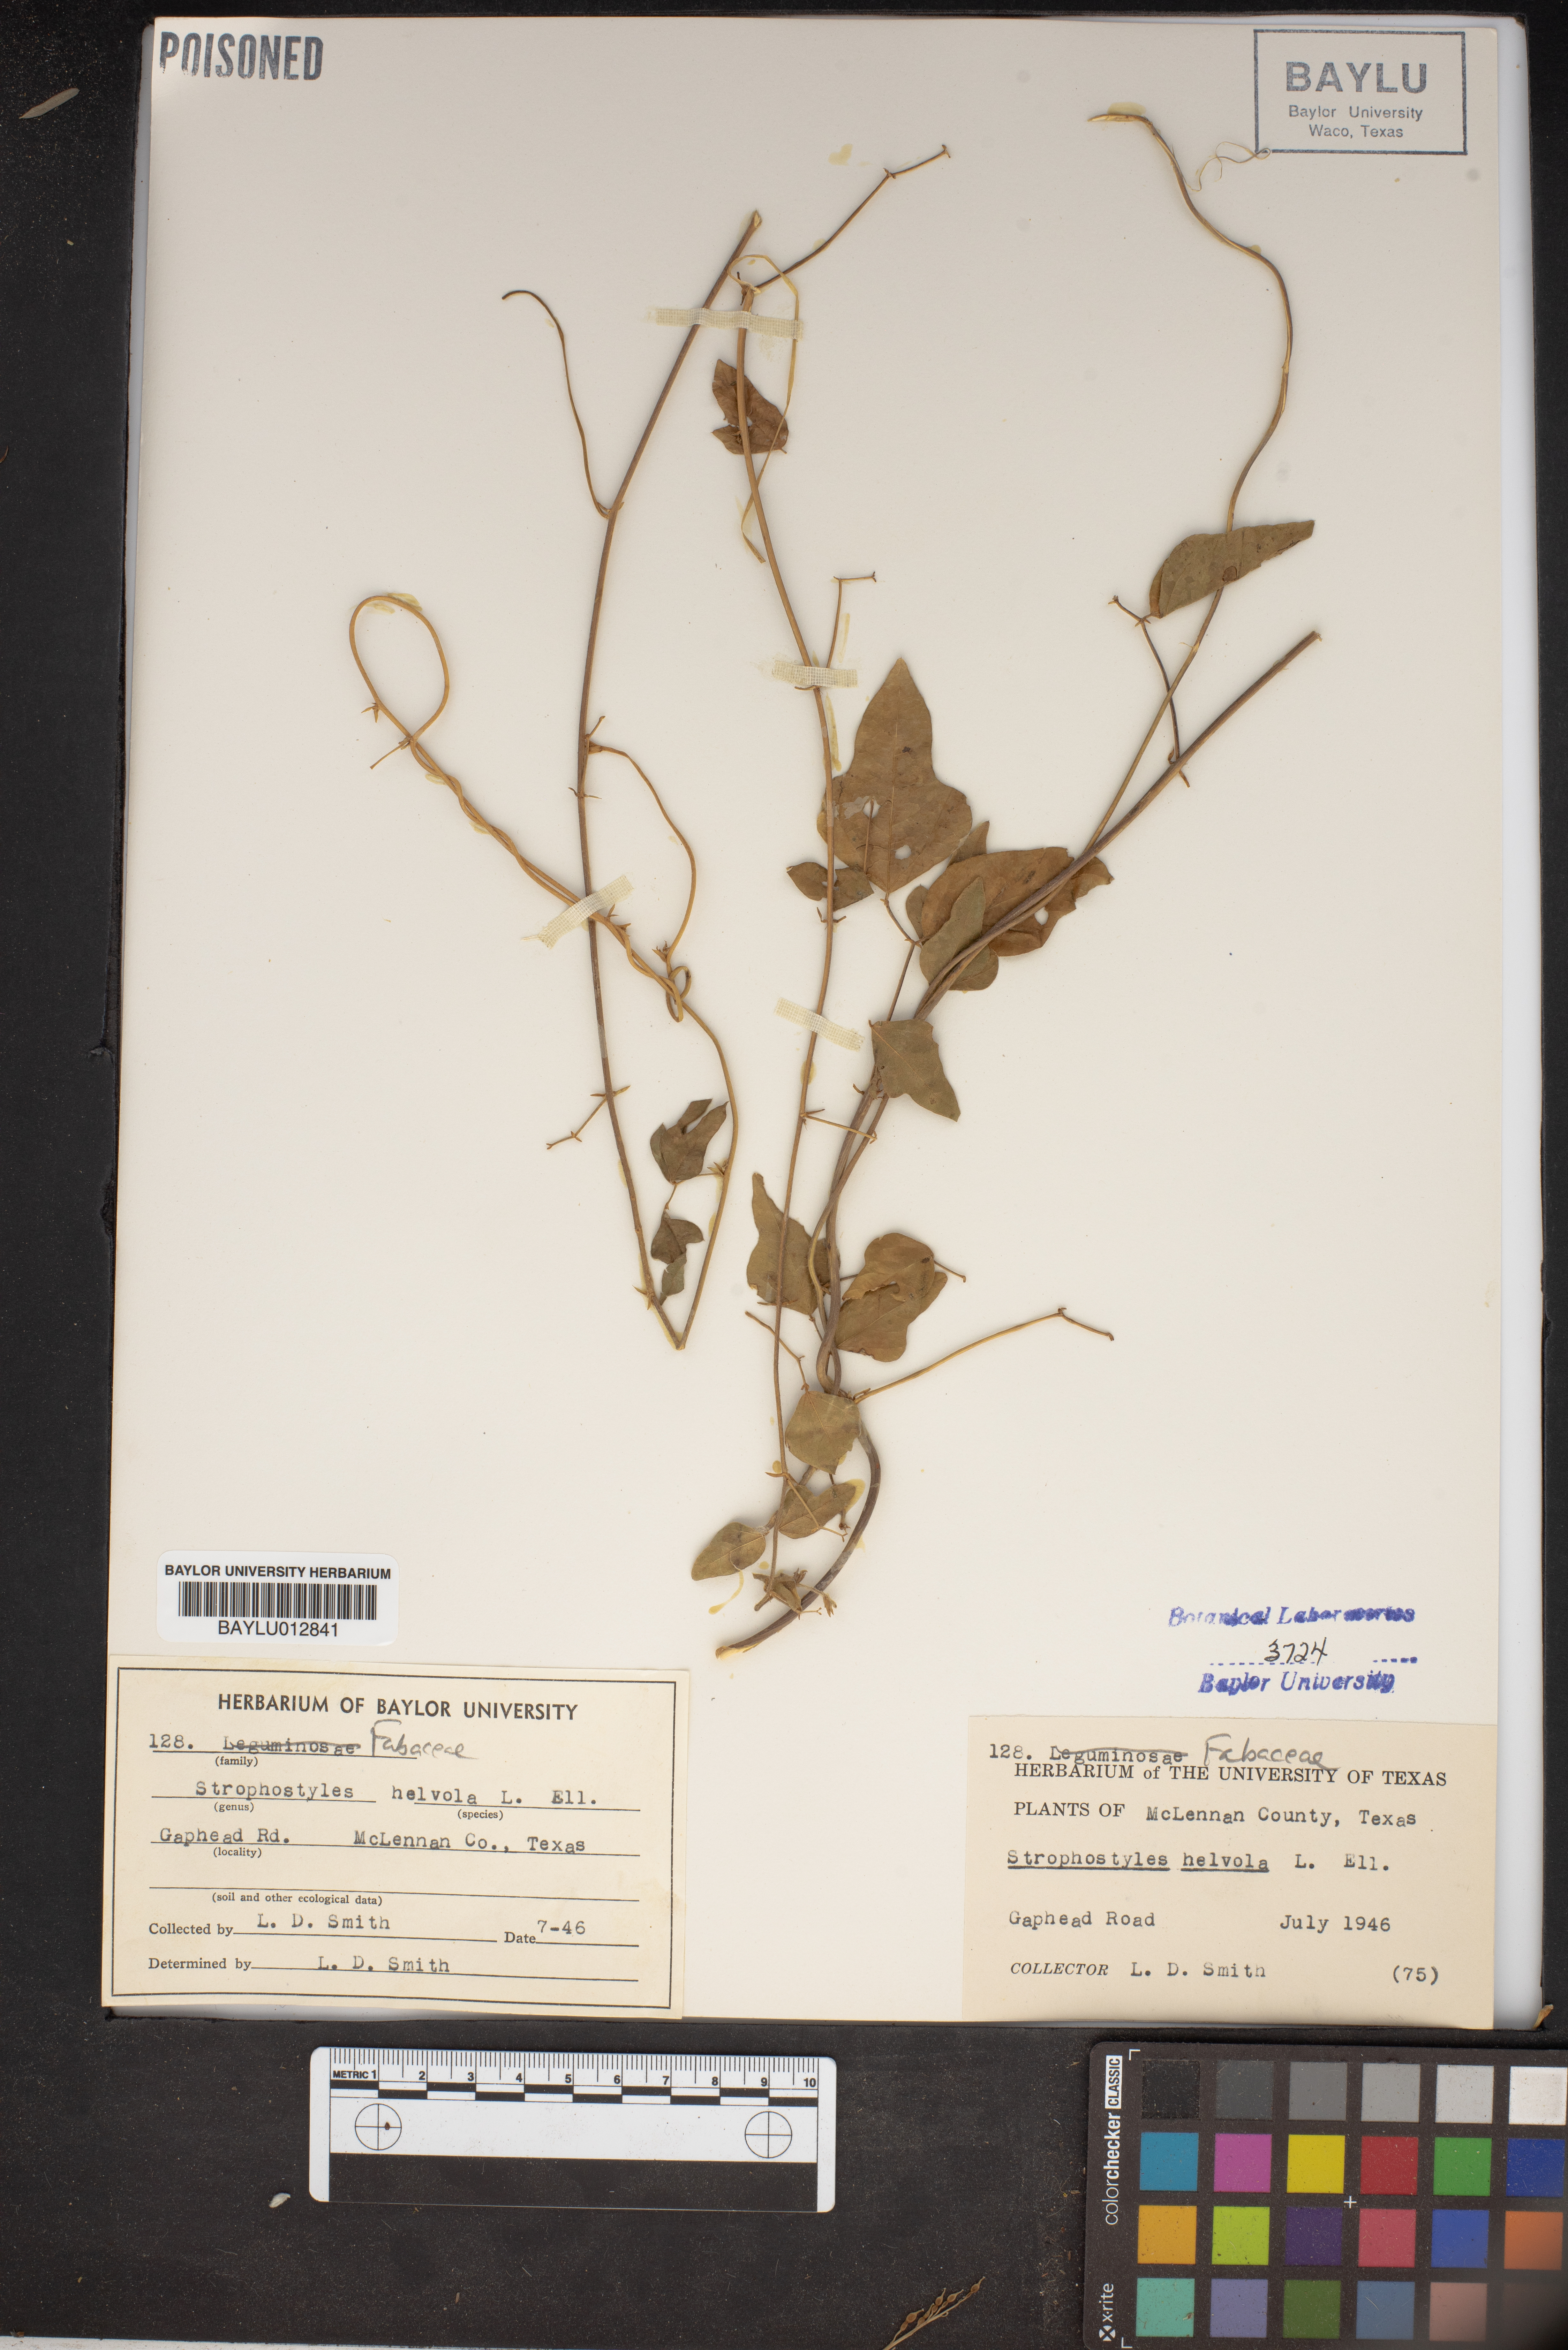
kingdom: Plantae
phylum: Tracheophyta
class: Magnoliopsida
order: Fabales
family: Fabaceae
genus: Strophostyles
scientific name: Strophostyles helvola
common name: Trailing wild bean
